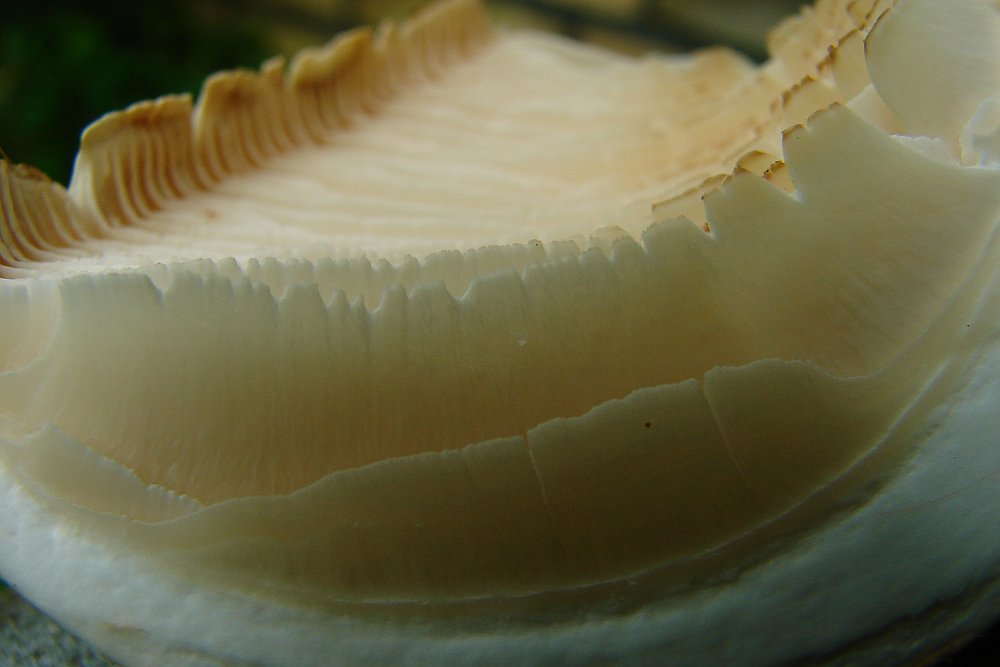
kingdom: Fungi
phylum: Basidiomycota
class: Agaricomycetes
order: Gloeophyllales
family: Gloeophyllaceae
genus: Neolentinus
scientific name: Neolentinus lepideus
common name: skællet sejhat
